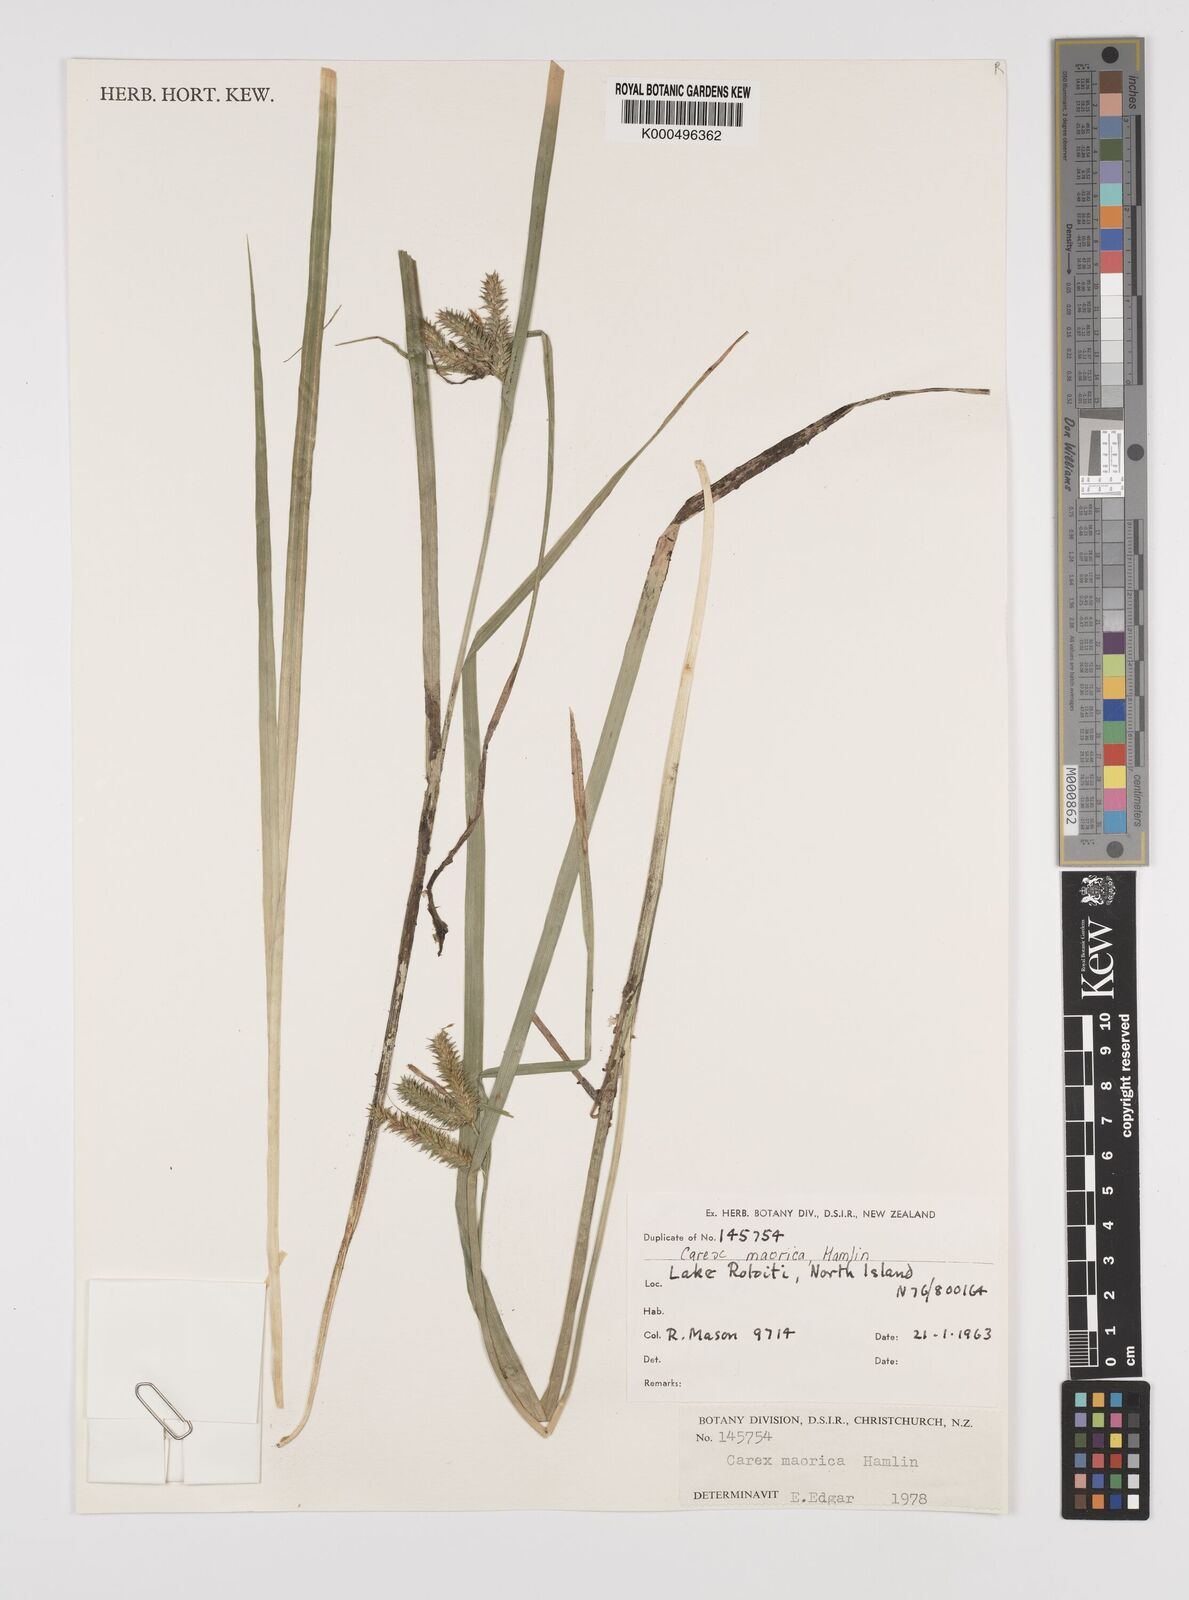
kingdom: Plantae
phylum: Tracheophyta
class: Liliopsida
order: Poales
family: Cyperaceae
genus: Carex
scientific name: Carex maorica
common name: Maori sedge
